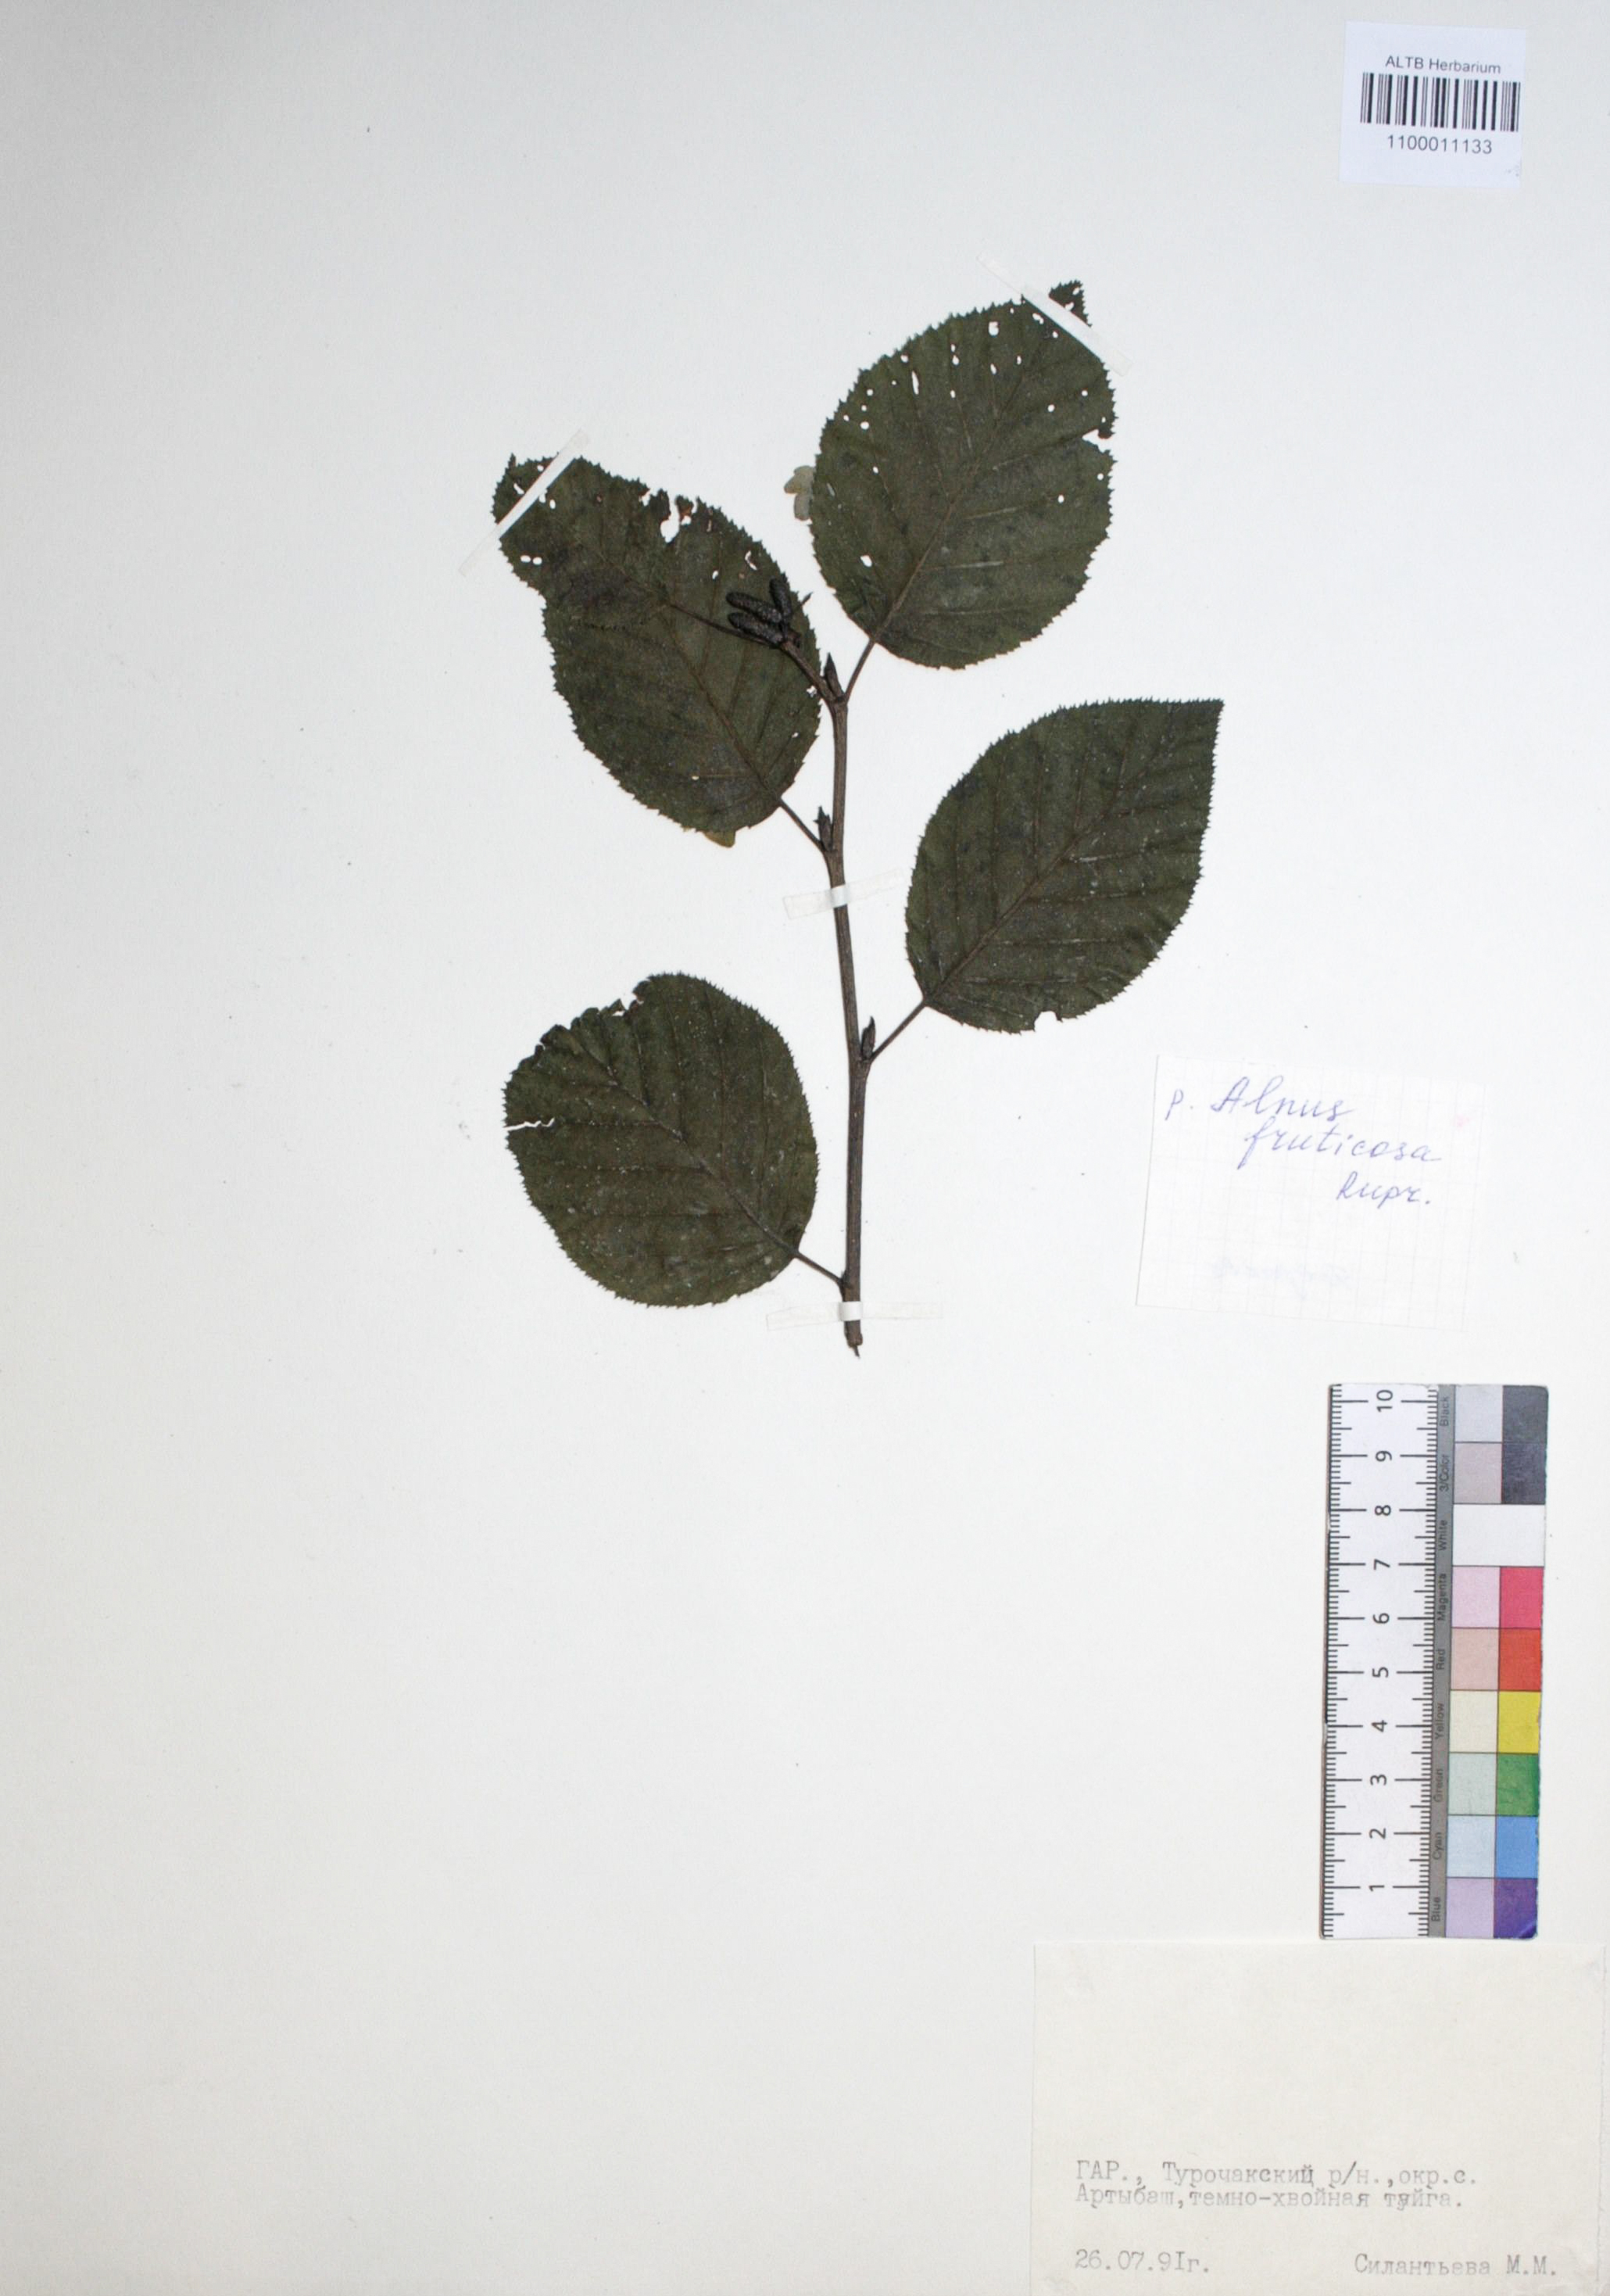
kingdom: Plantae
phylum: Tracheophyta
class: Magnoliopsida
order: Fagales
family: Betulaceae
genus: Alnus
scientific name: Alnus alnobetula
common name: Green alder
